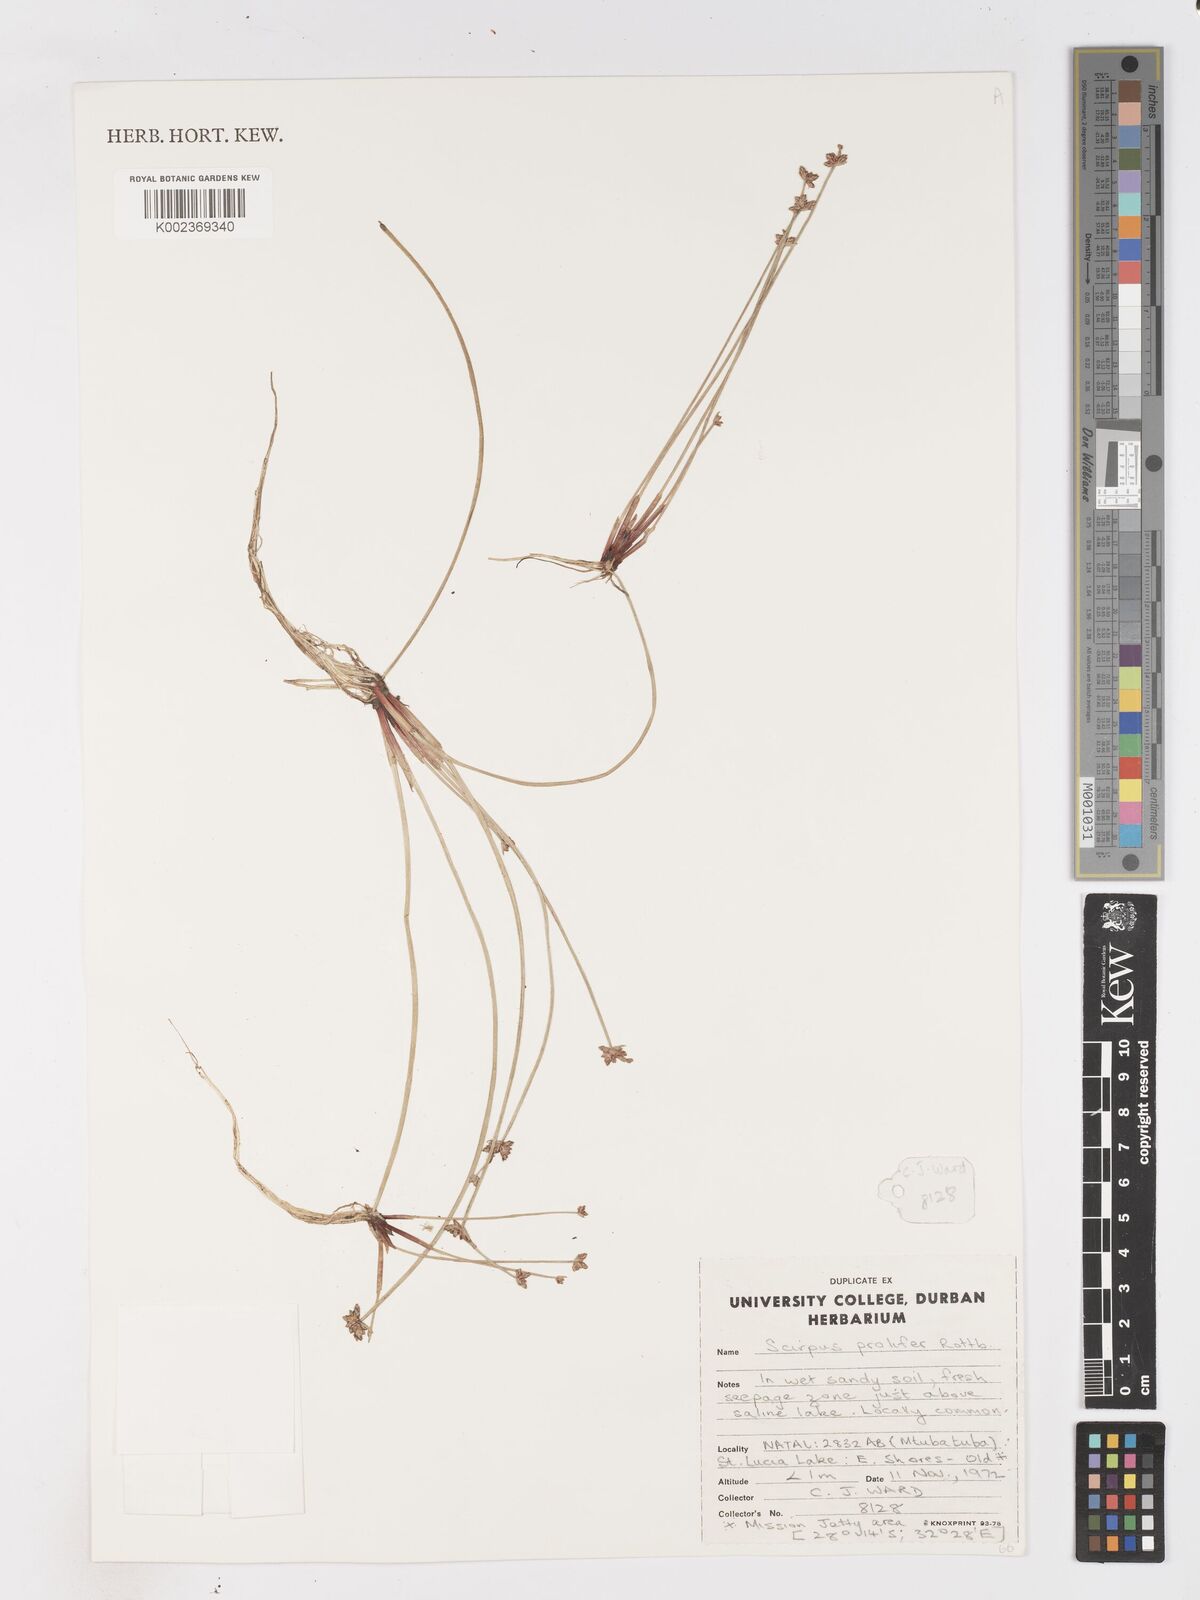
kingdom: Plantae
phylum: Tracheophyta
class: Liliopsida
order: Poales
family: Cyperaceae
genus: Isolepis
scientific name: Isolepis prolifera
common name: Proliferating bulrush
